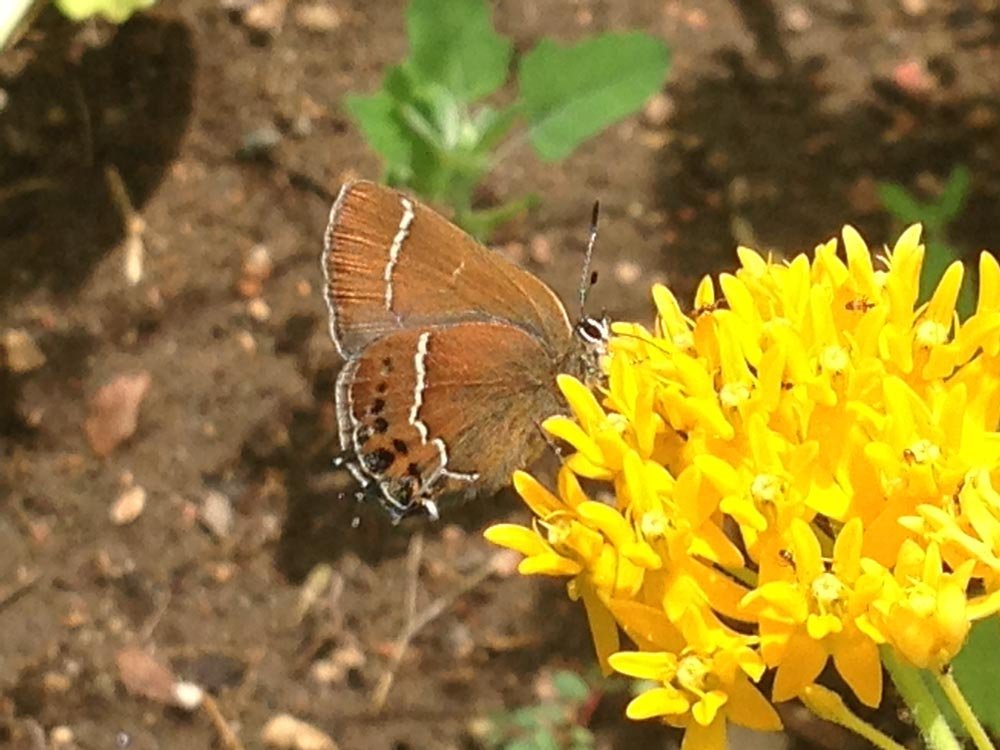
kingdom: Animalia
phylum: Arthropoda
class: Insecta
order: Lepidoptera
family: Lycaenidae
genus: Mitoura
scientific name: Mitoura spinetorum
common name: Thicket Hairstreak
